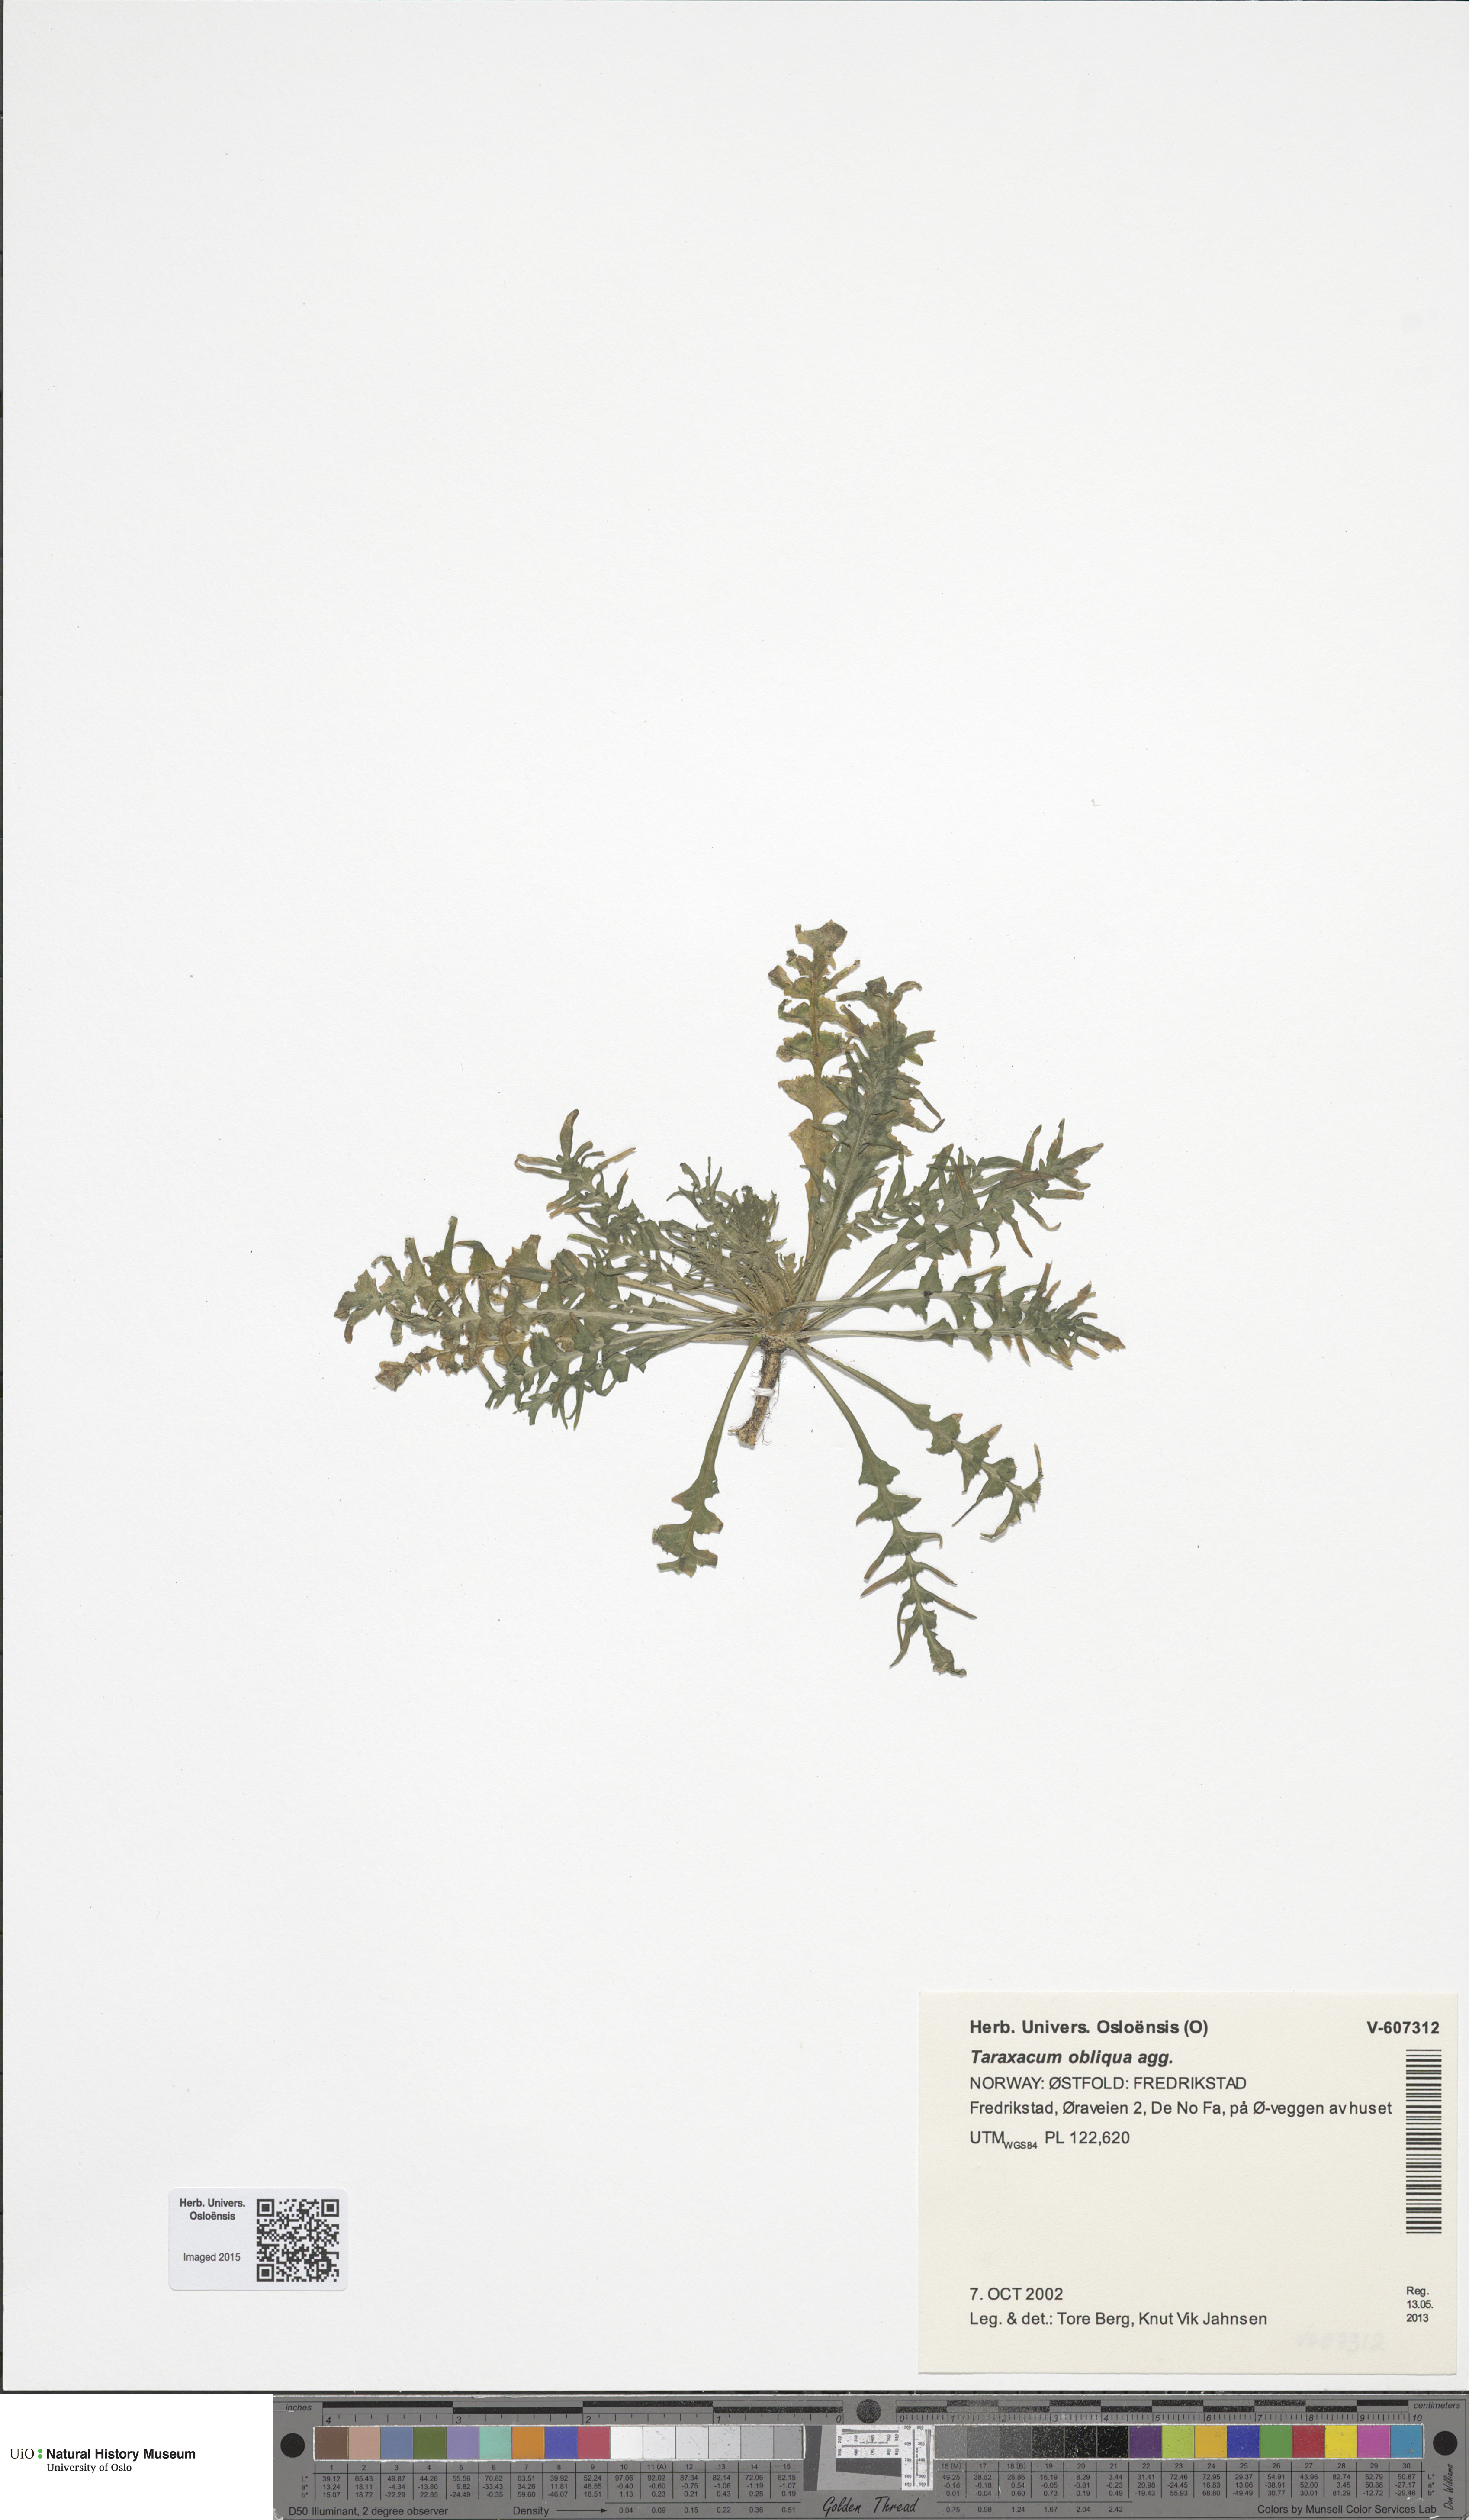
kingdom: Plantae
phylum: Tracheophyta
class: Magnoliopsida
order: Asterales
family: Asteraceae
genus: Taraxacum
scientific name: Taraxacum
